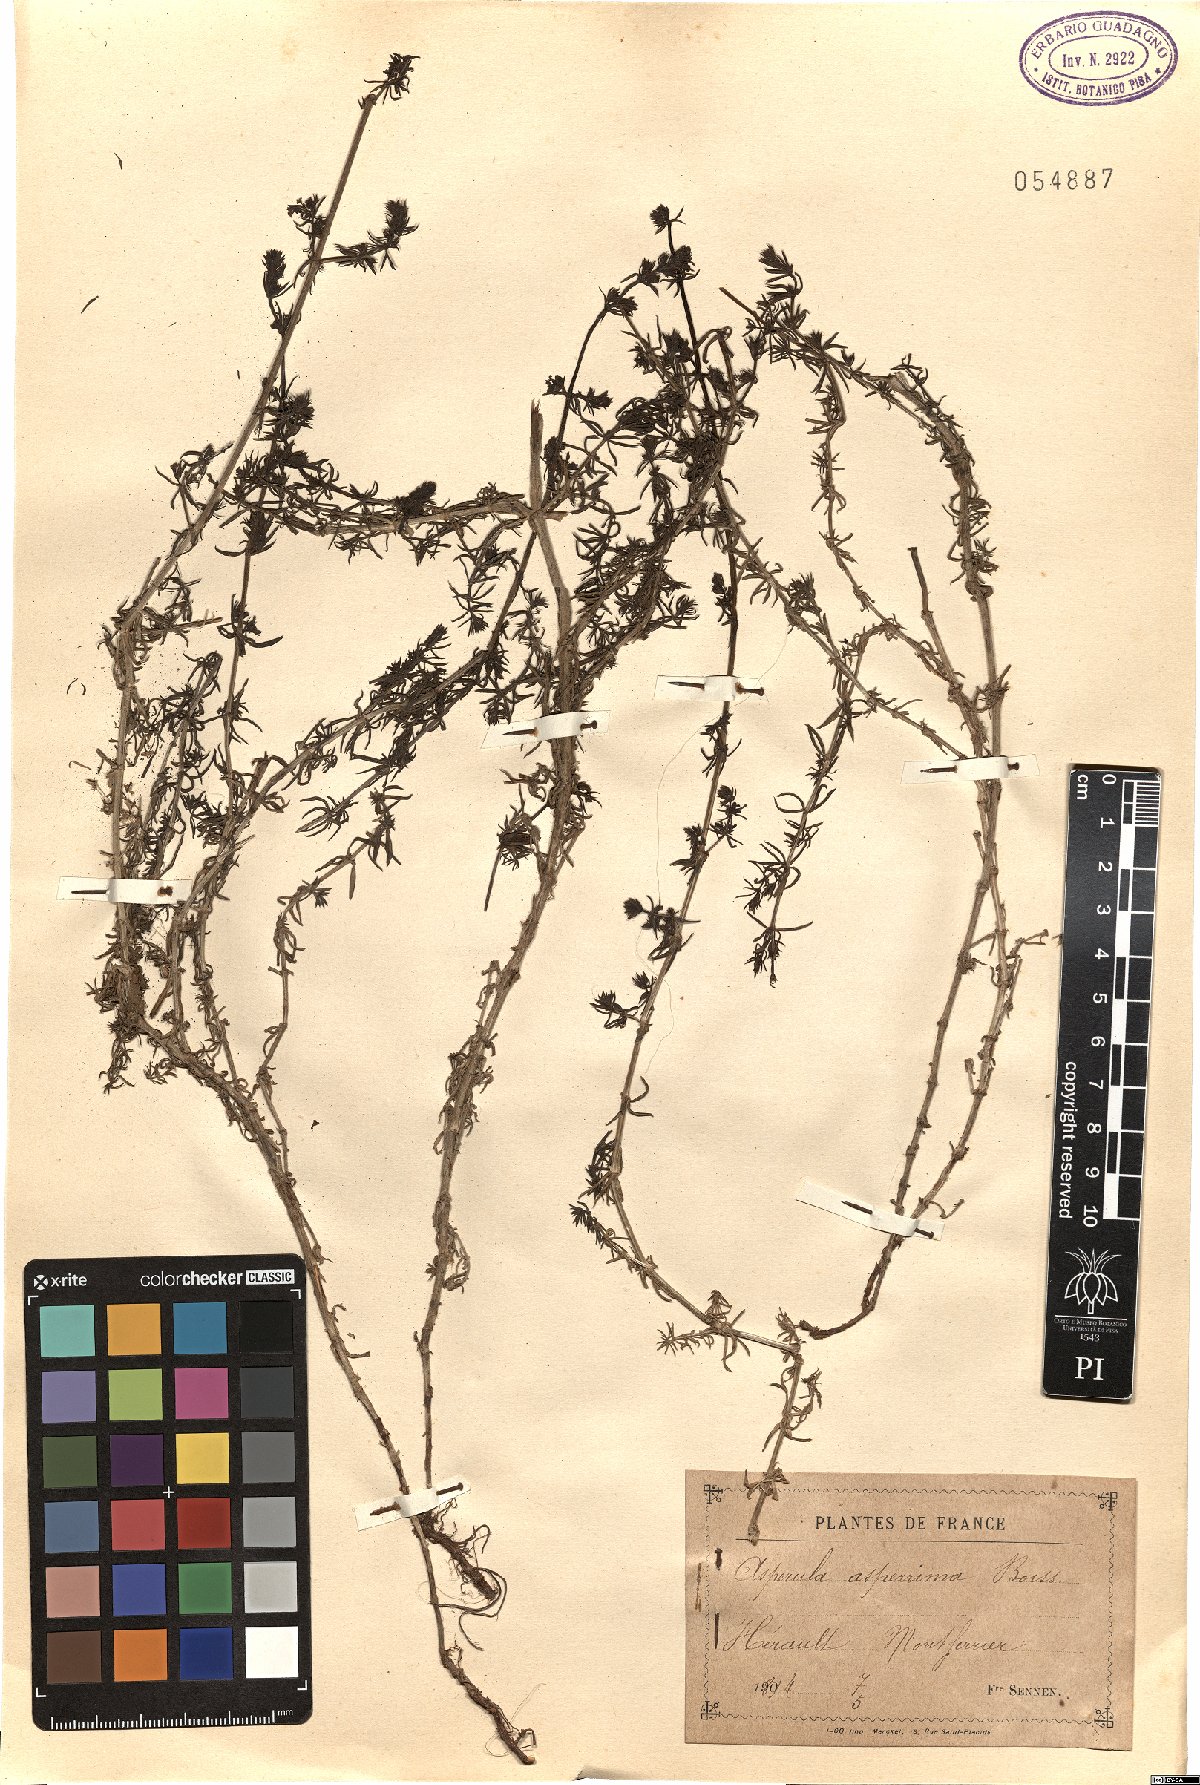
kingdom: Plantae
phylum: Tracheophyta
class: Magnoliopsida
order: Gentianales
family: Rubiaceae
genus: Galium
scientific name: Galium pierredmondii
